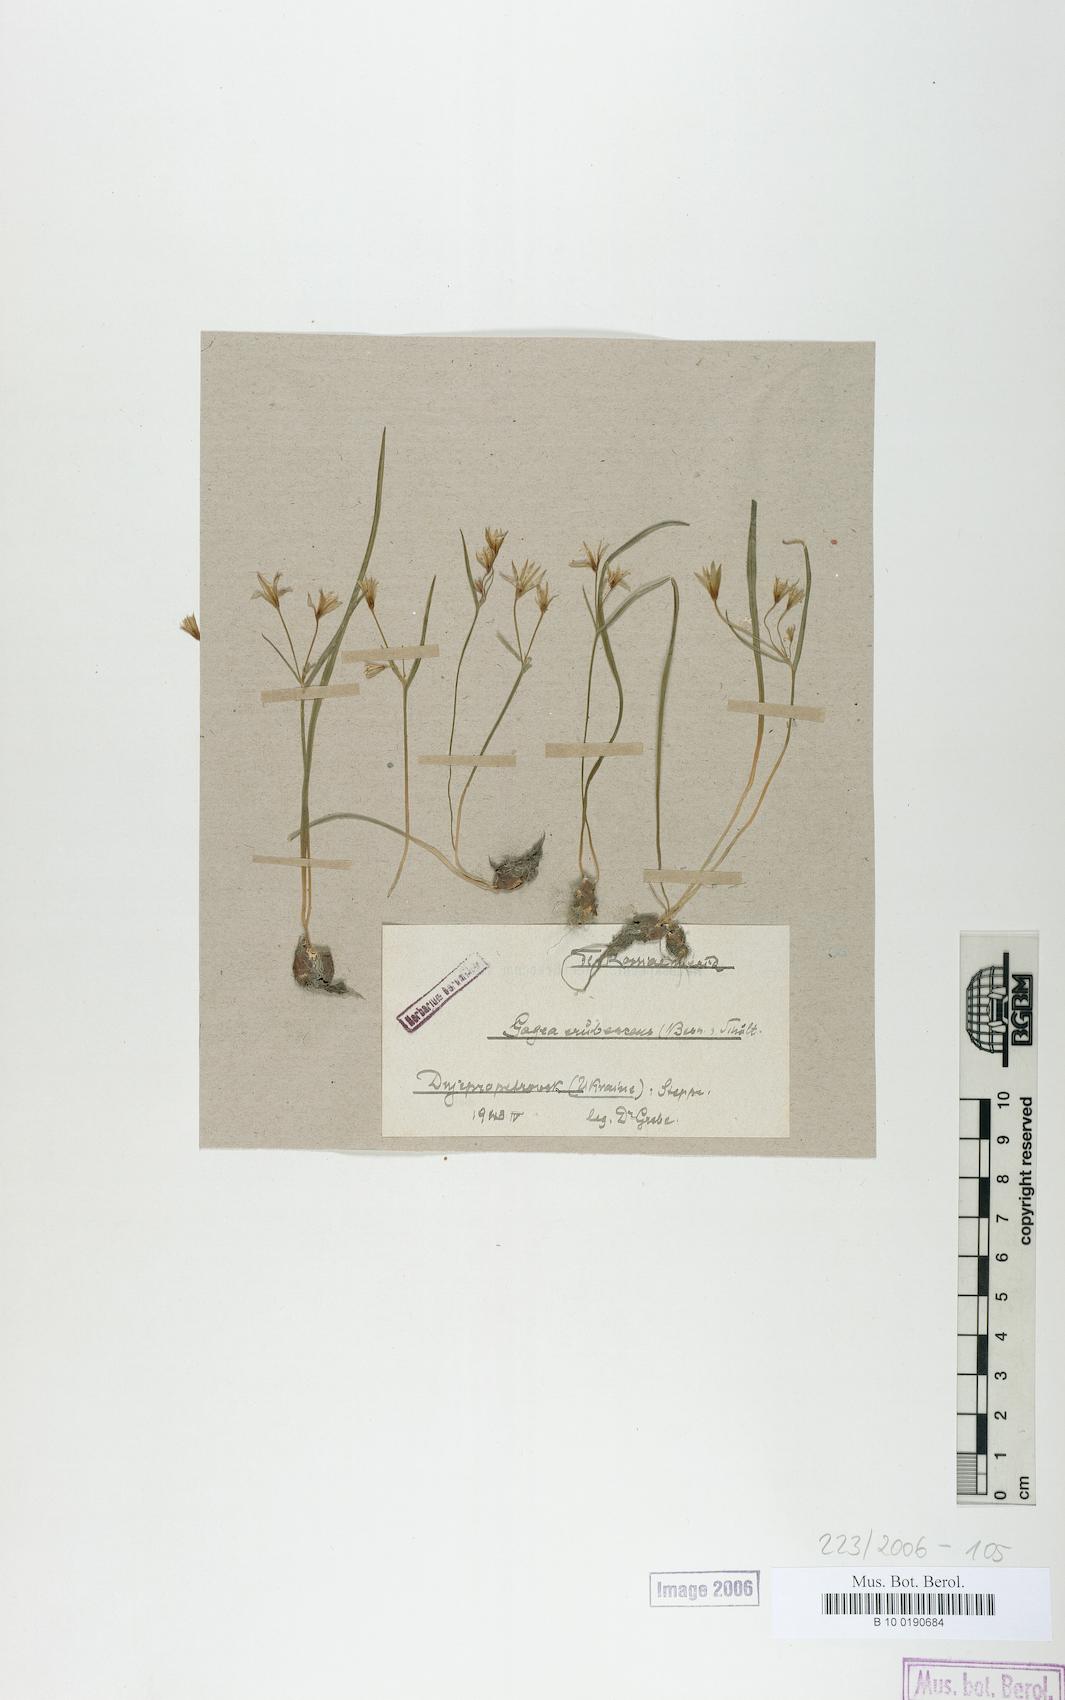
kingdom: Plantae
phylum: Tracheophyta
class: Liliopsida
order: Liliales
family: Liliaceae
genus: Gagea
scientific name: Gagea fragifera
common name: Lily
